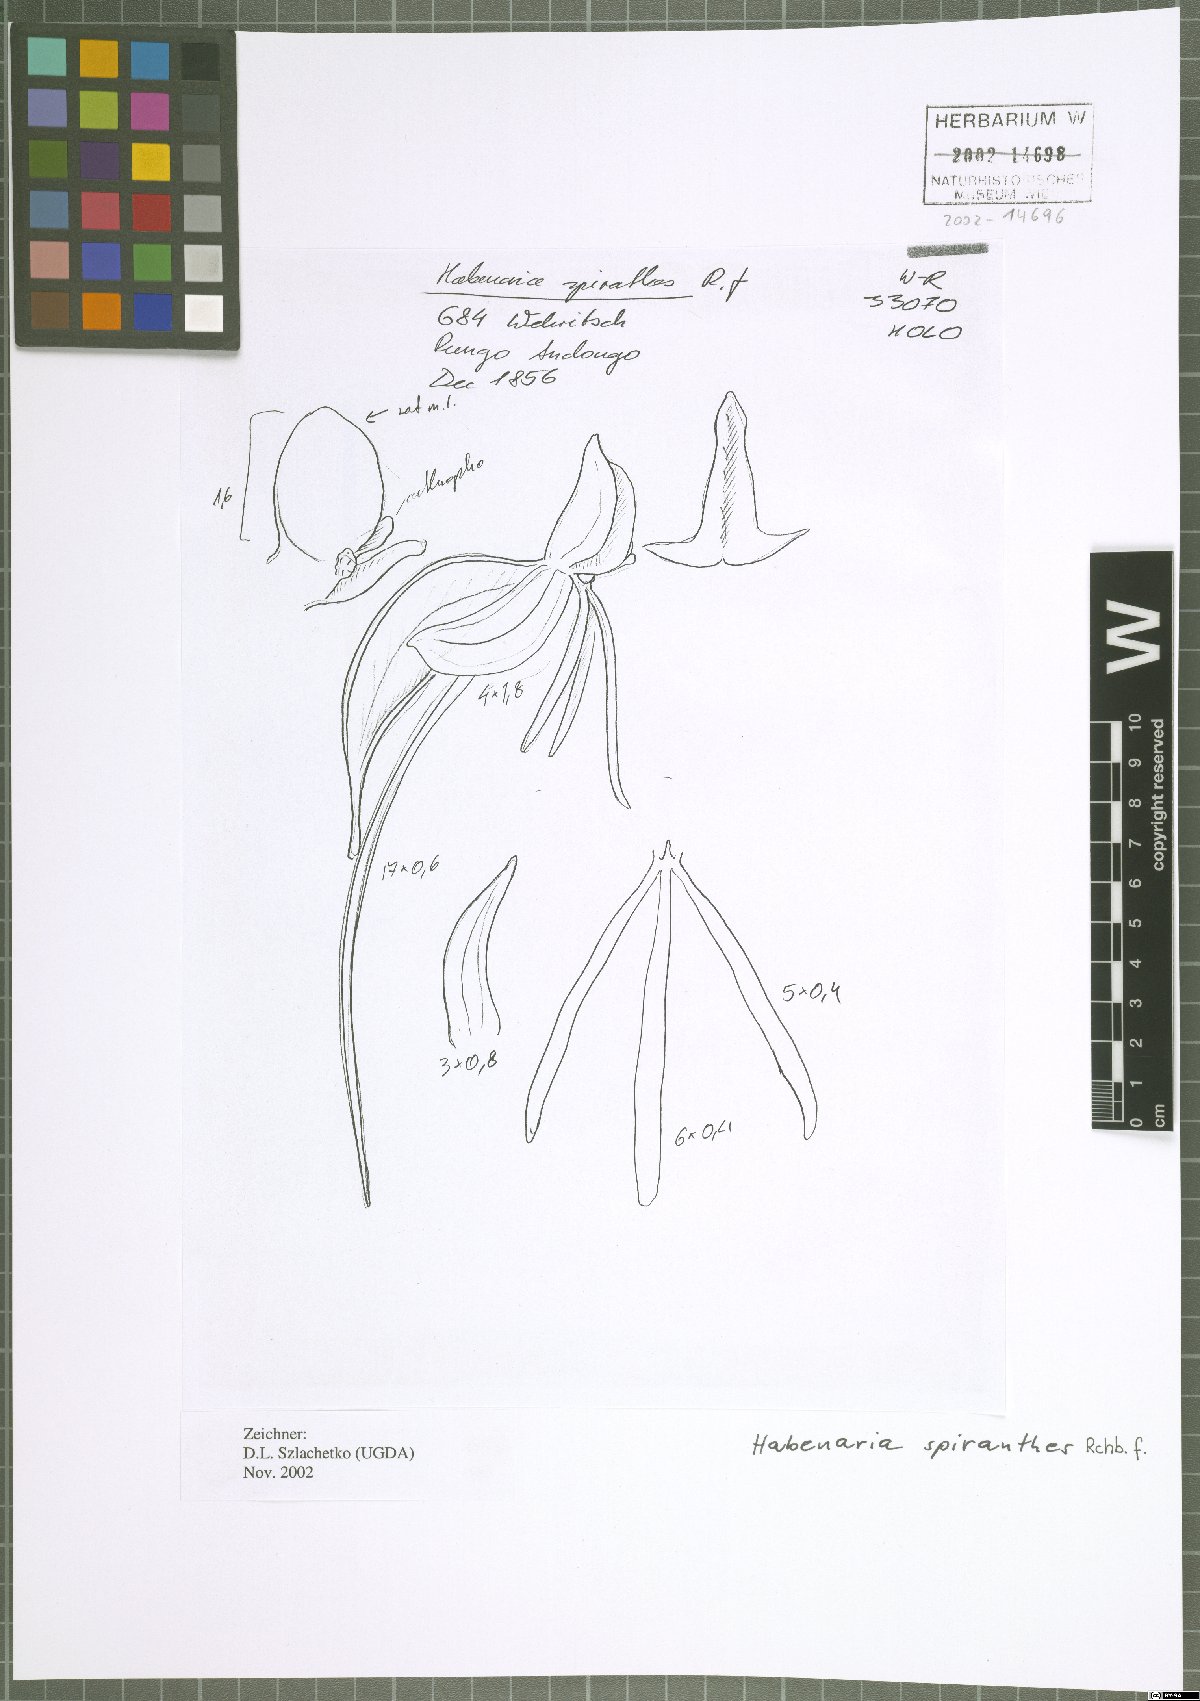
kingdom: Plantae
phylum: Tracheophyta
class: Liliopsida
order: Asparagales
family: Orchidaceae
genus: Habenaria
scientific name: Habenaria
